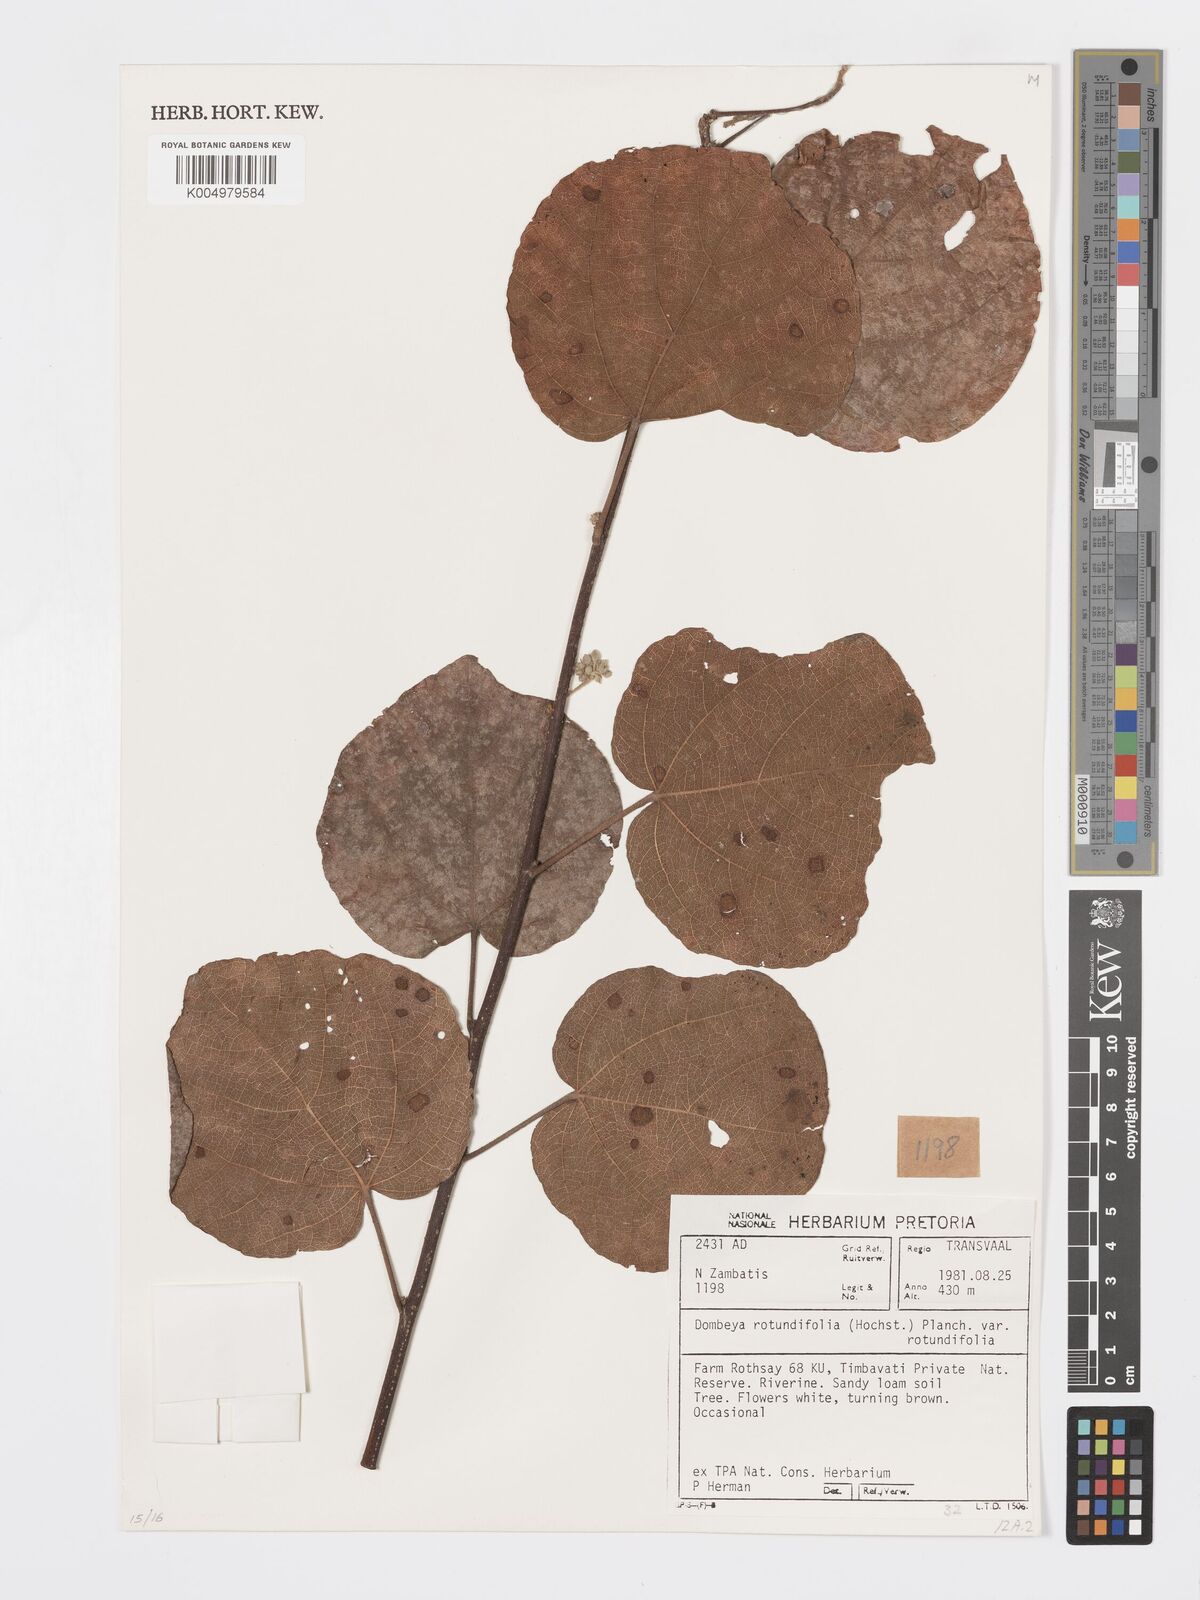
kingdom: Plantae
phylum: Tracheophyta
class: Magnoliopsida
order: Malvales
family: Malvaceae
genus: Dombeya
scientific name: Dombeya rotundifolia
